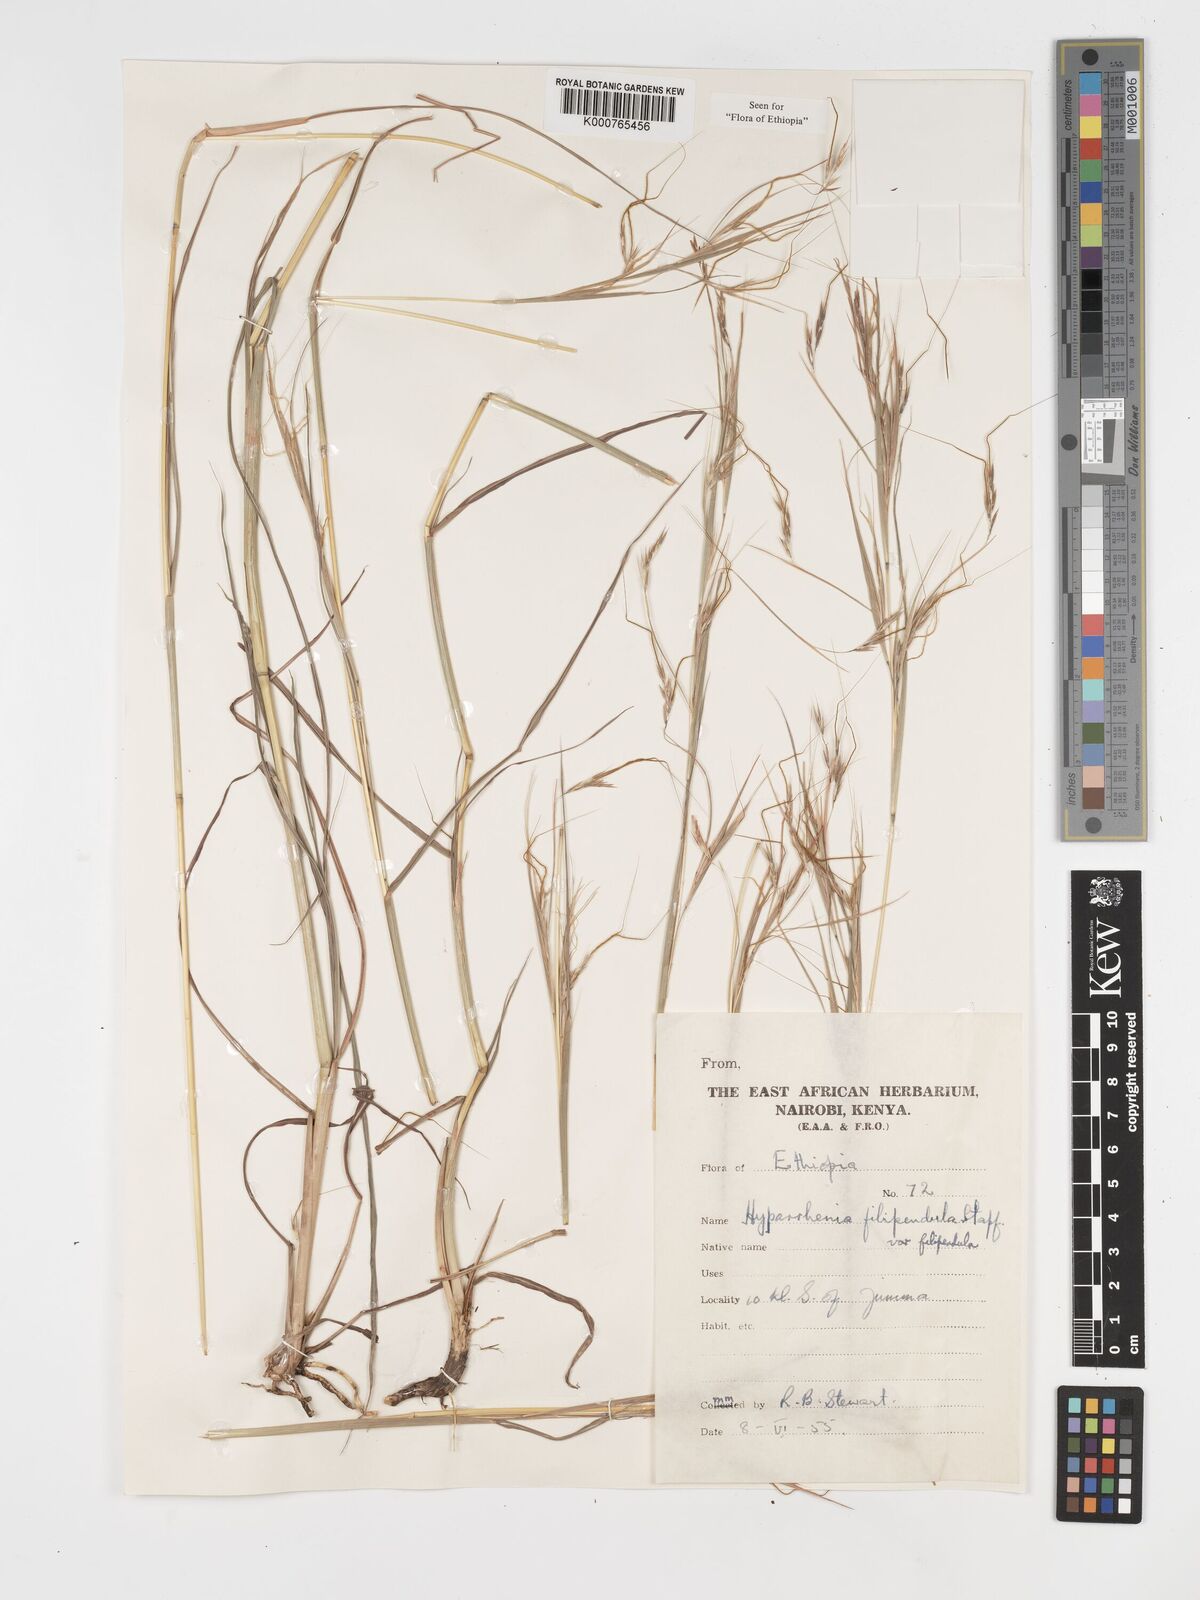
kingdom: Plantae
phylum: Tracheophyta
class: Liliopsida
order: Poales
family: Poaceae
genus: Hyparrhenia
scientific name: Hyparrhenia filipendula
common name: Tambookie grass
